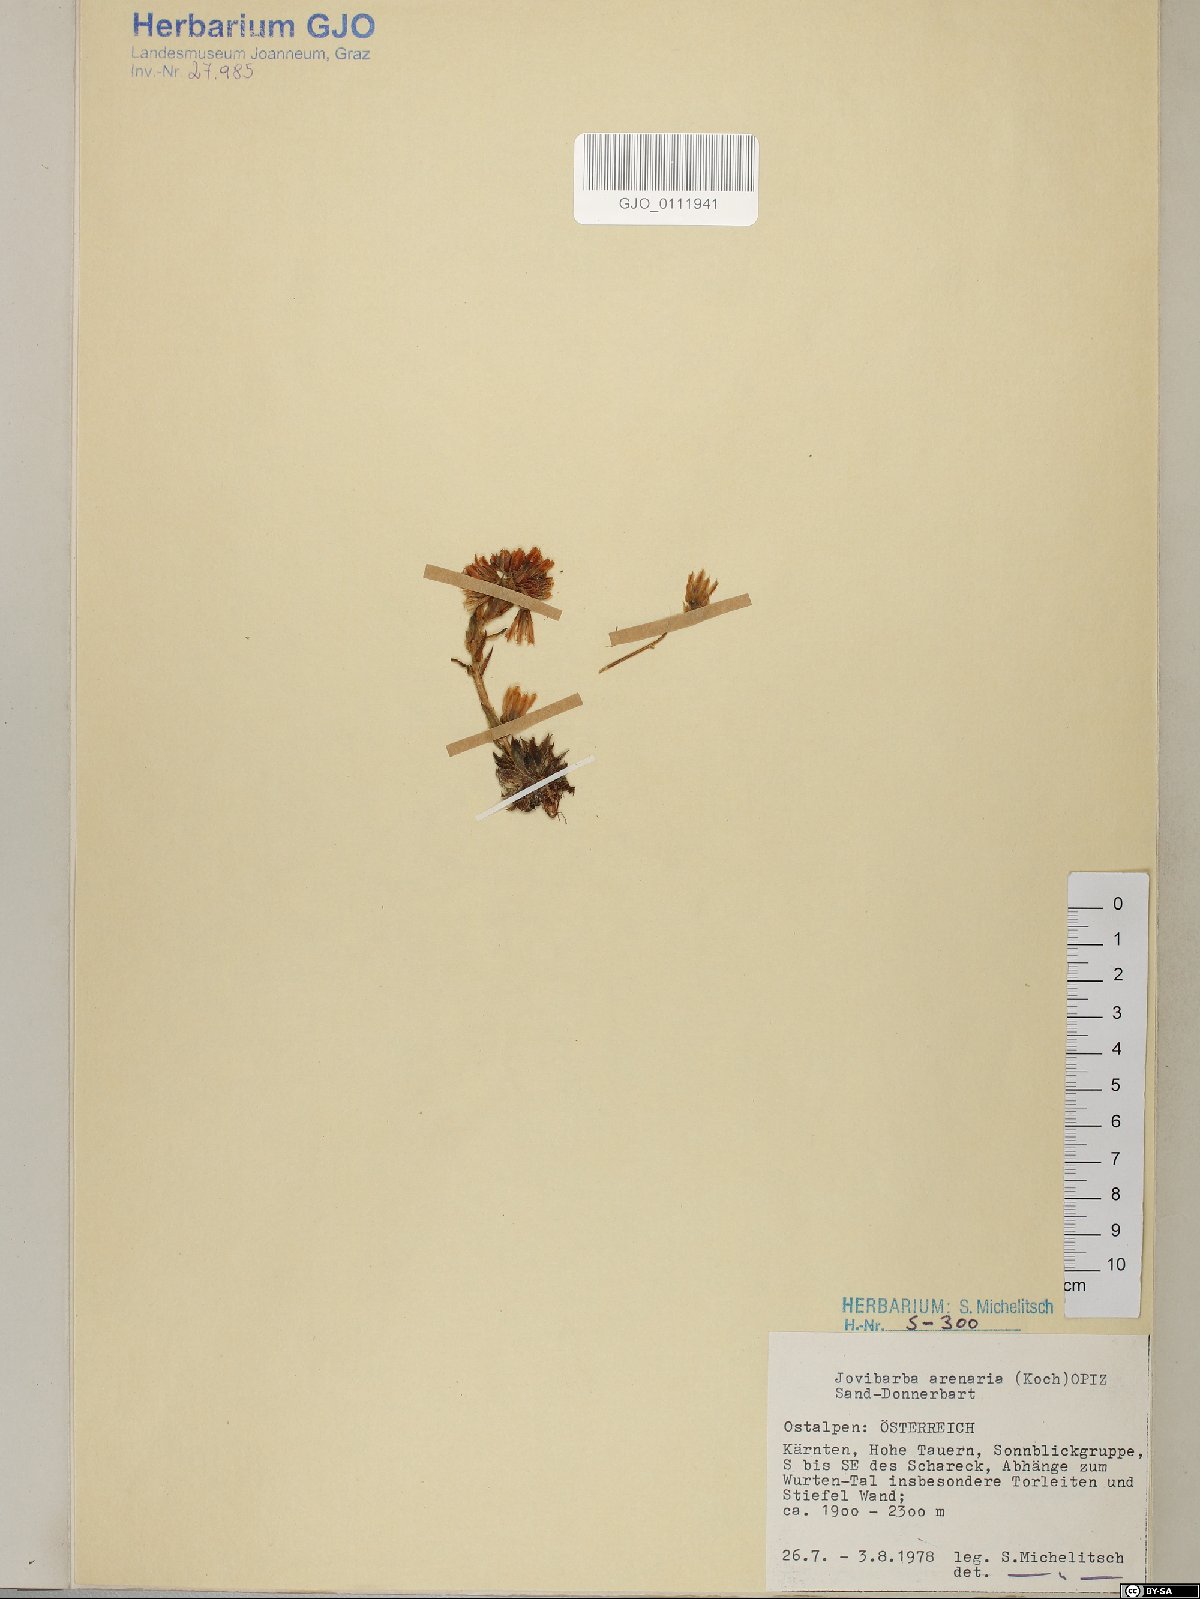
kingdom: Plantae
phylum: Tracheophyta
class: Magnoliopsida
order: Saxifragales
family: Crassulaceae
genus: Sempervivum
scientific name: Sempervivum globiferum
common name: Rolling hen-and-chicks
